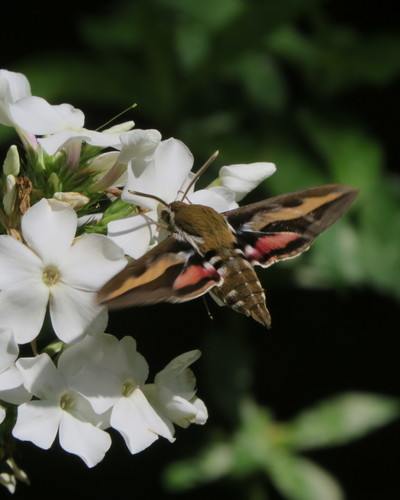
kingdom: Animalia
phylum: Arthropoda
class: Insecta
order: Lepidoptera
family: Sphingidae
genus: Hyles
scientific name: Hyles gallii
